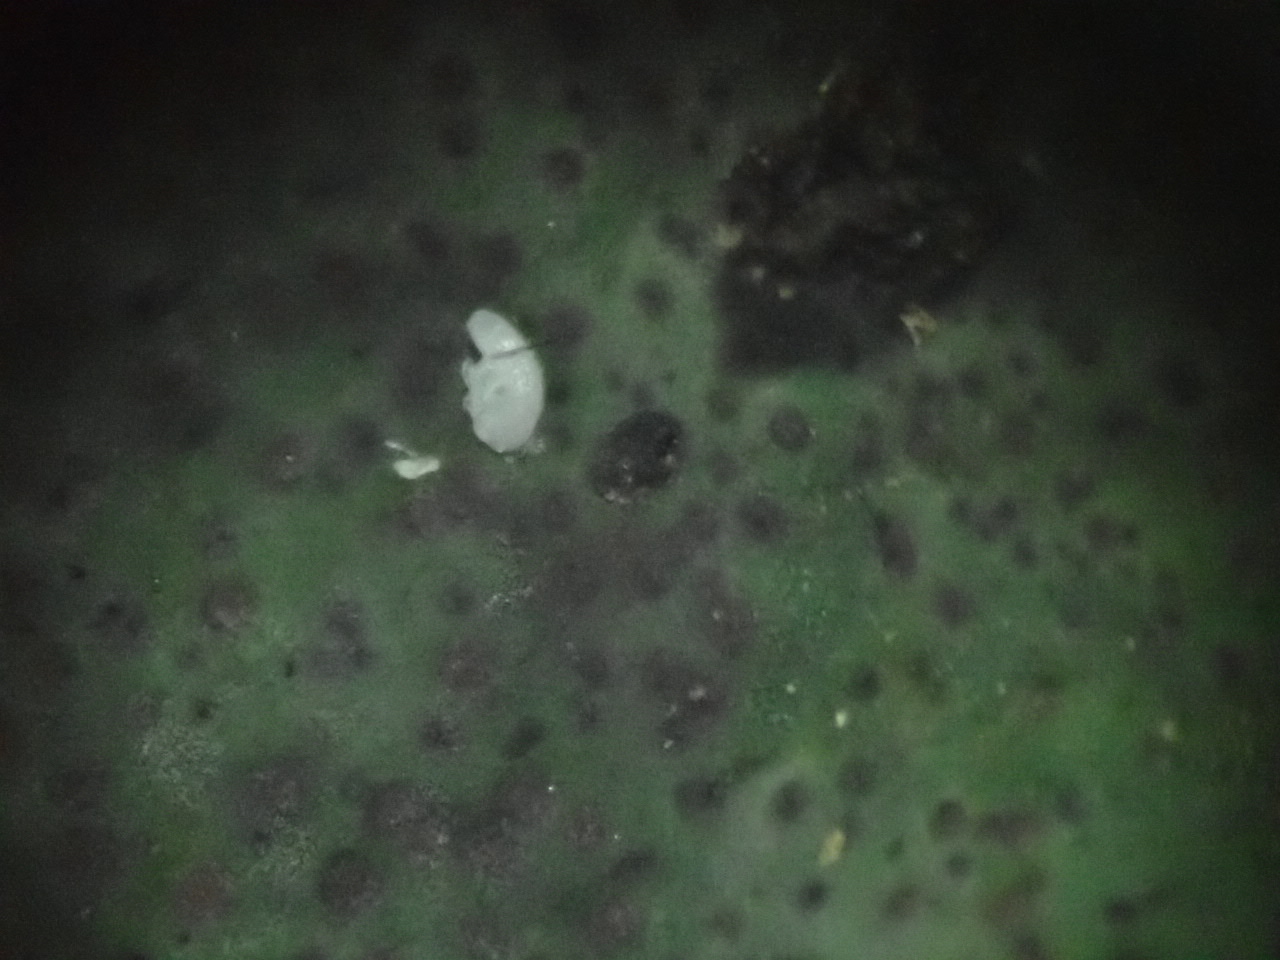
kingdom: Fungi
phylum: Ascomycota
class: Eurotiomycetes
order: Verrucariales
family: Verrucariaceae
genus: Dermatocarpon
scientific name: Dermatocarpon luridum
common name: Brook stippleback lichen
